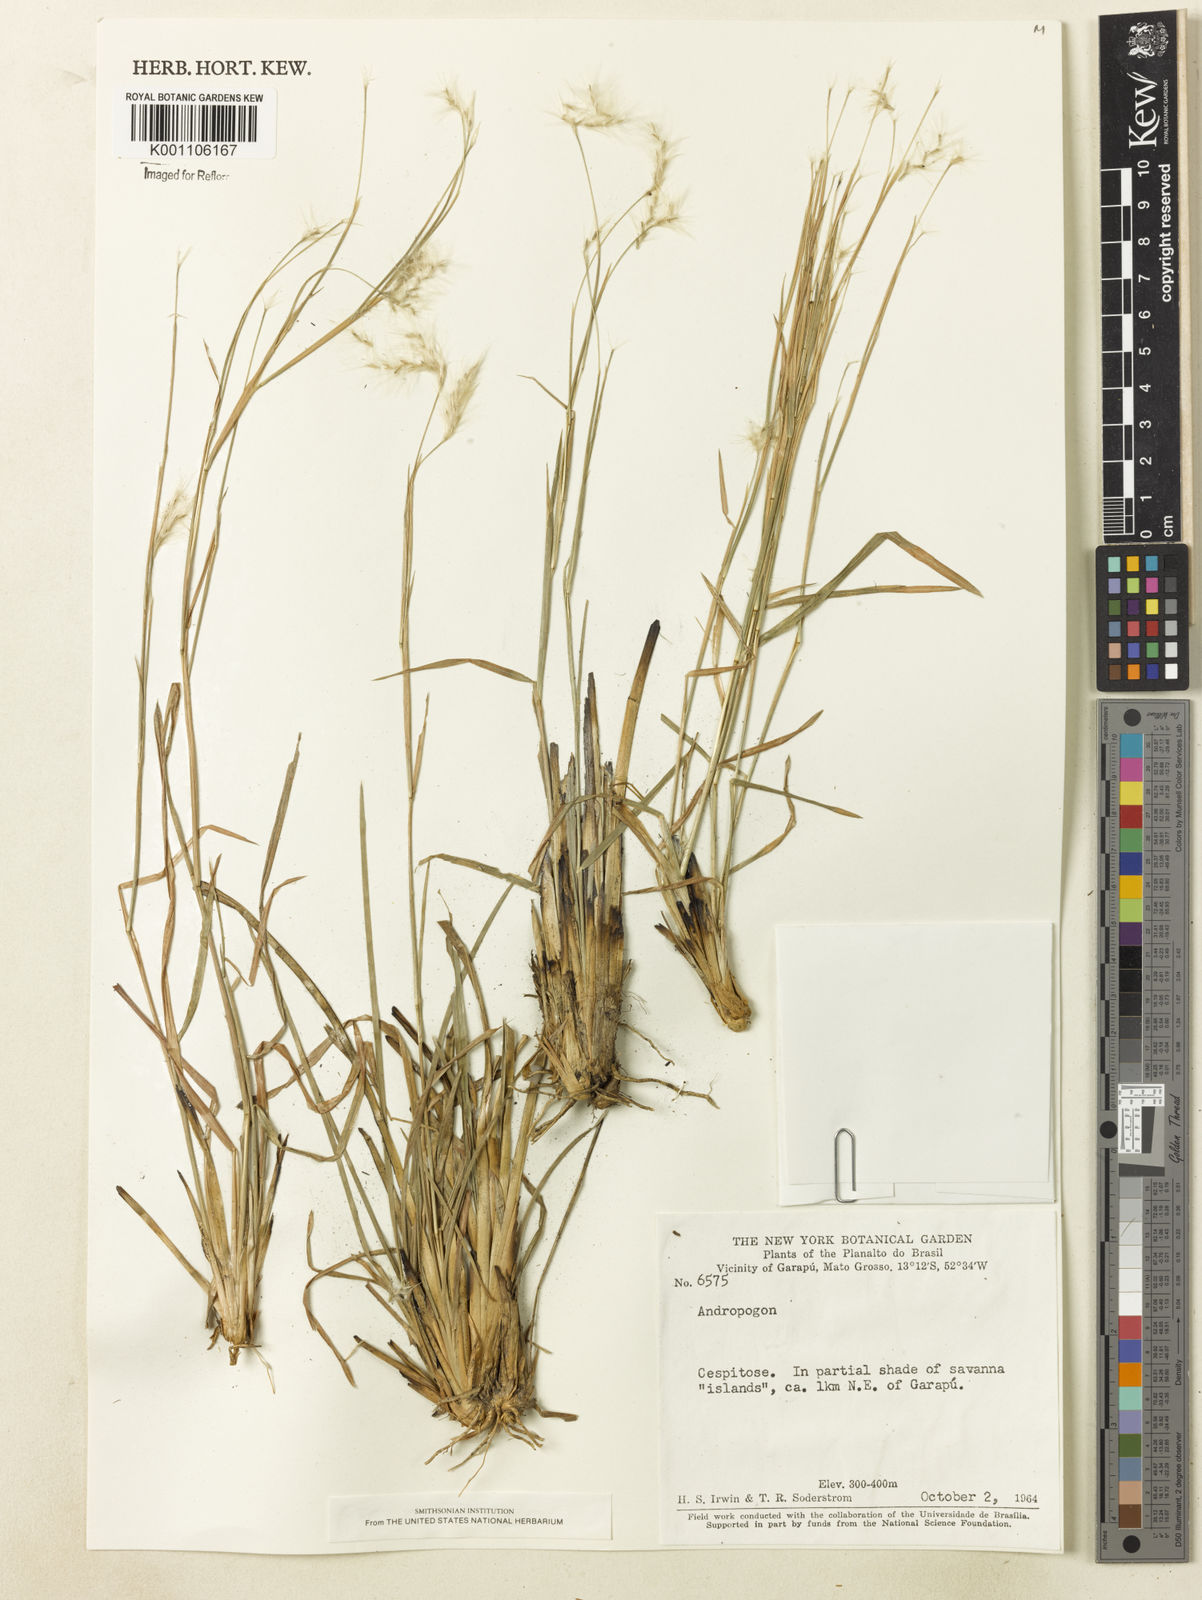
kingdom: Plantae
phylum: Tracheophyta
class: Liliopsida
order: Poales
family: Poaceae
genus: Andropogon
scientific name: Andropogon leucostachyus
